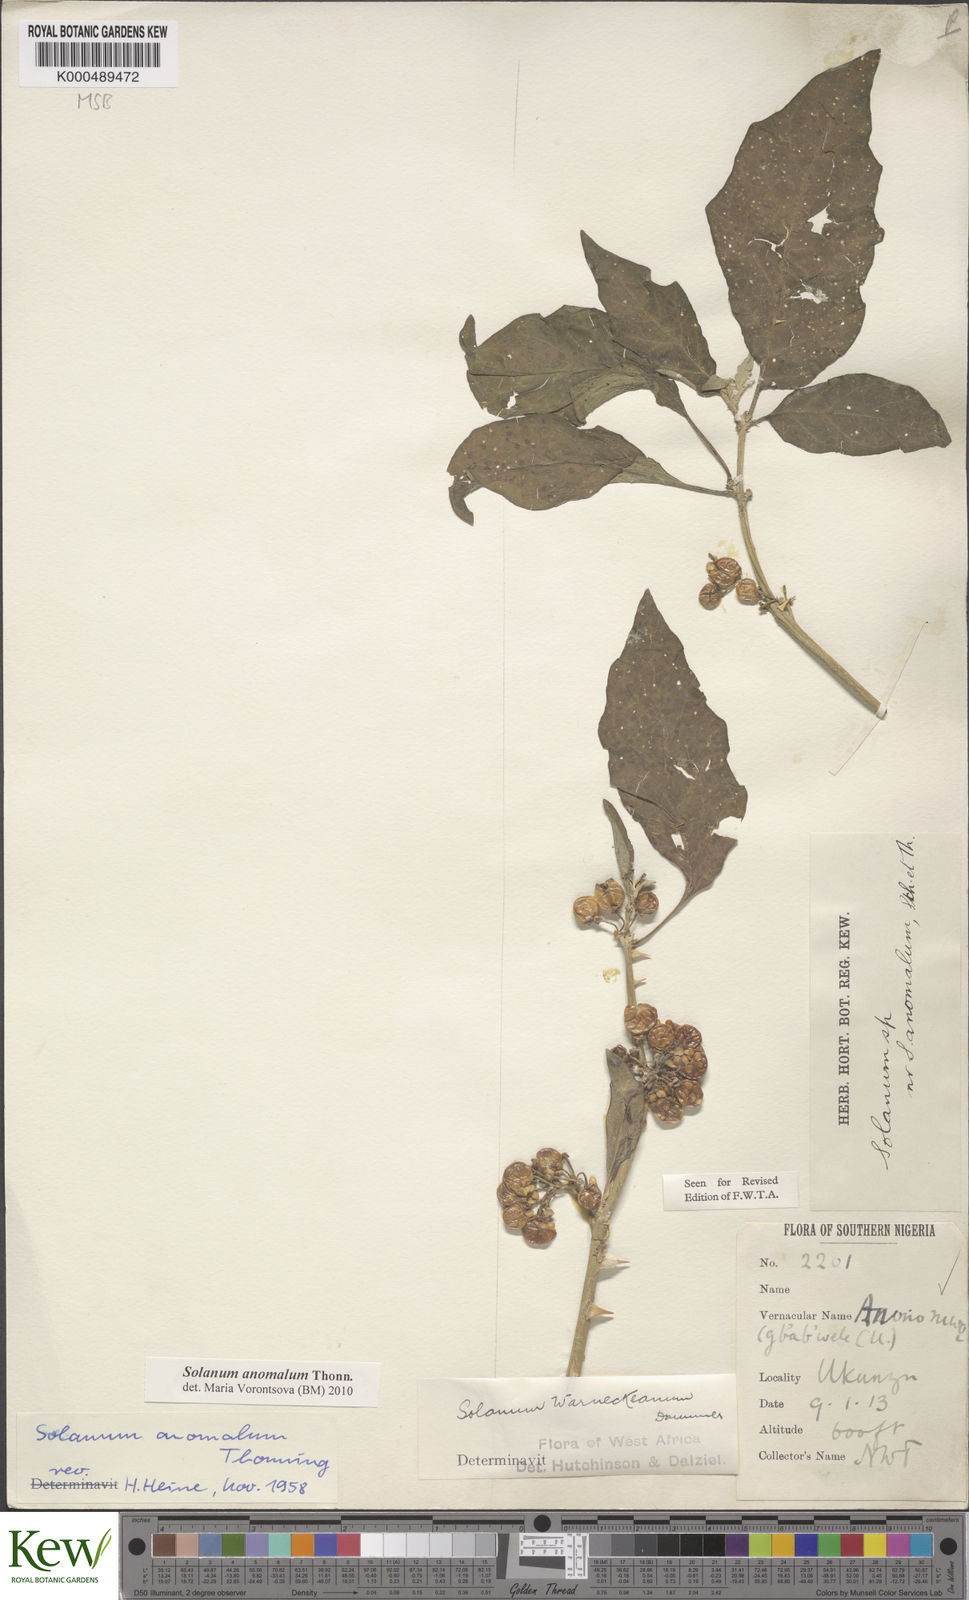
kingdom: Plantae
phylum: Tracheophyta
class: Magnoliopsida
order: Solanales
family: Solanaceae
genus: Solanum
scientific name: Solanum anomalum
